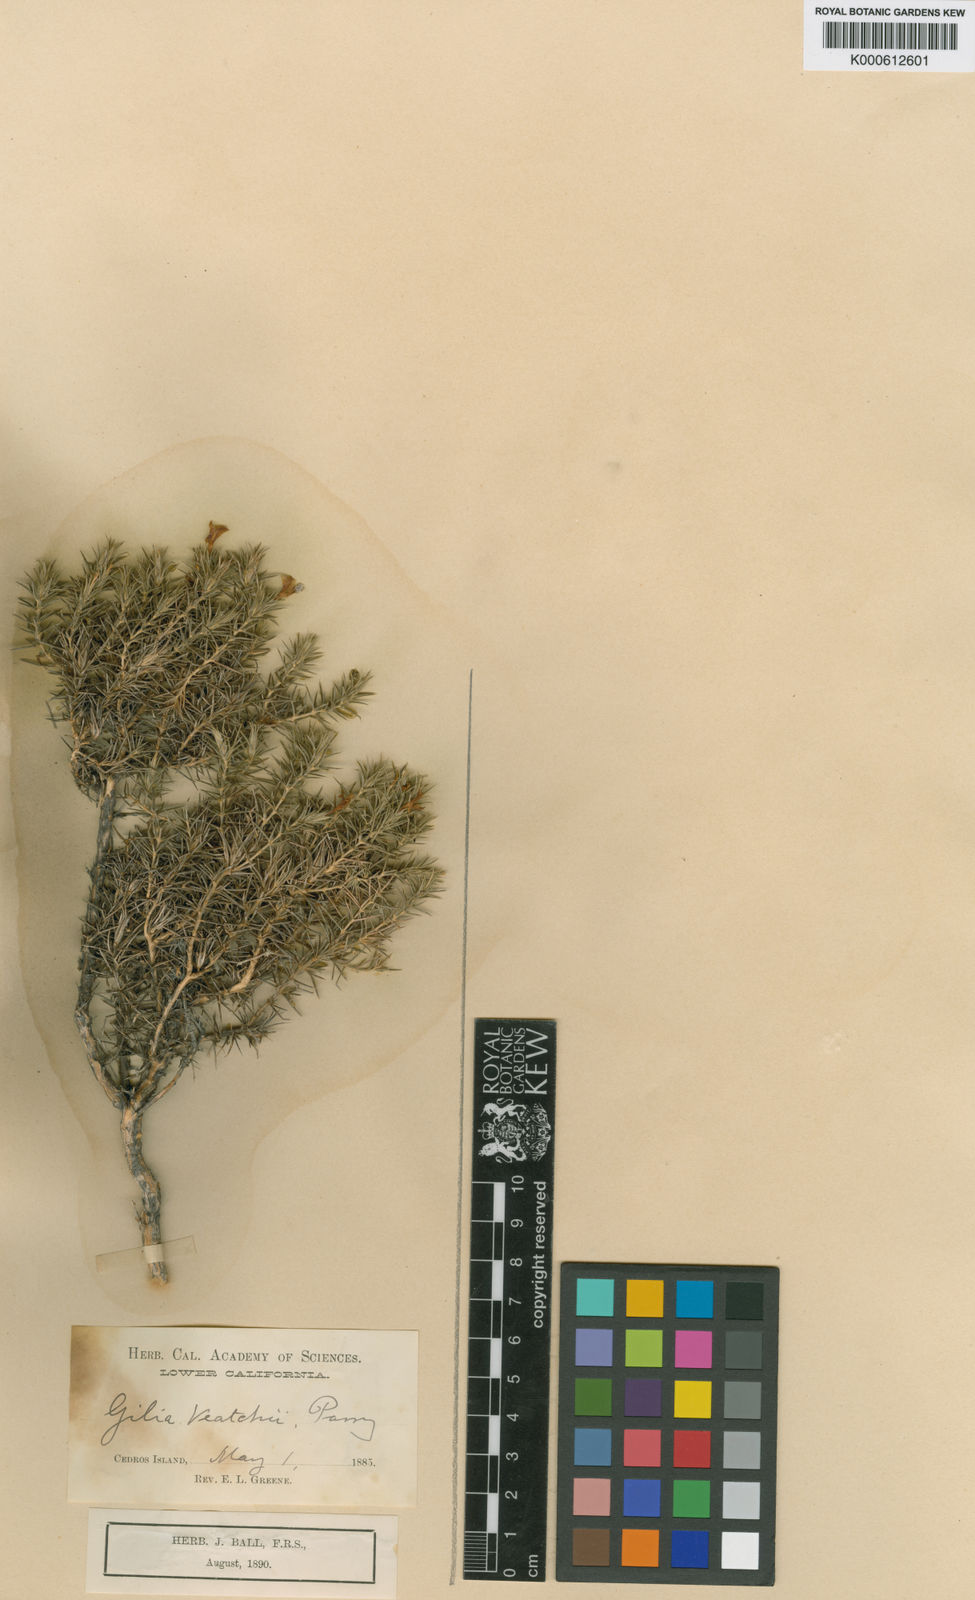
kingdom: Plantae
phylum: Tracheophyta
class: Magnoliopsida
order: Ericales
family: Polemoniaceae
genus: Linanthus
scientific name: Linanthus veatchii
